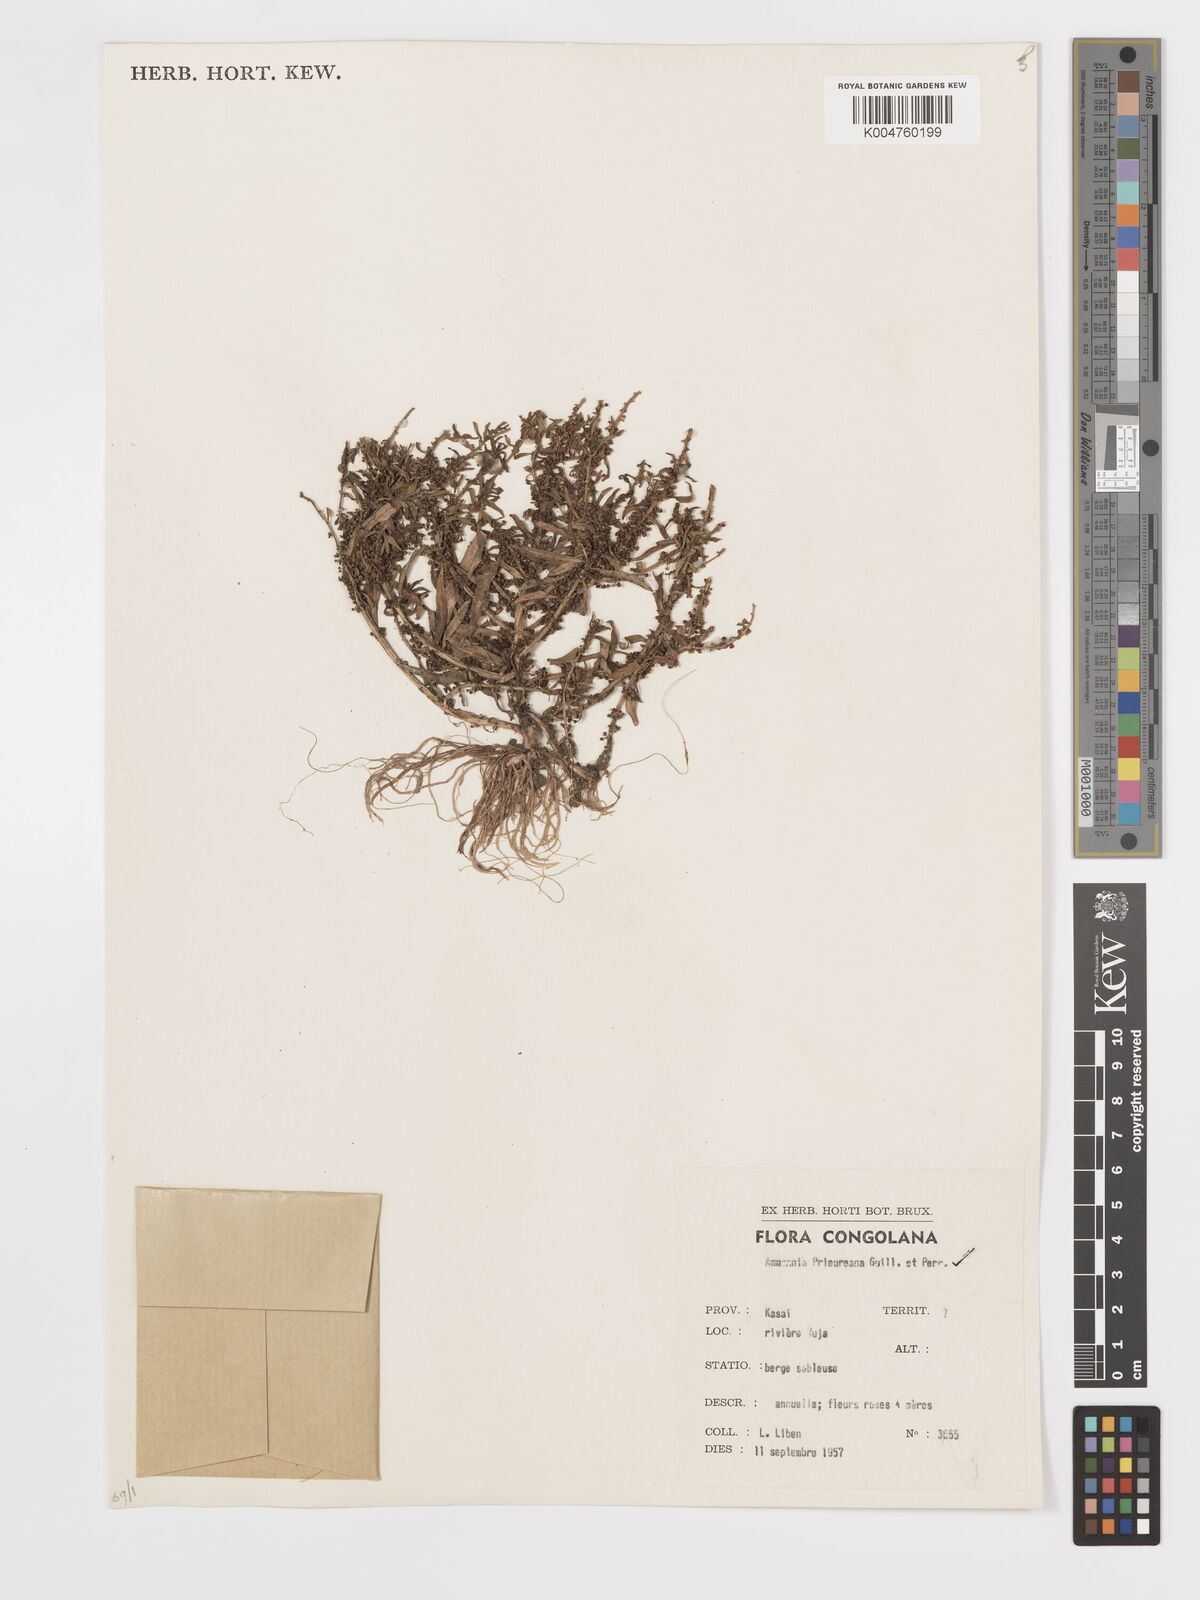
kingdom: Plantae
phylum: Tracheophyta
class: Magnoliopsida
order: Myrtales
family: Lythraceae
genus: Ammannia
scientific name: Ammannia prieuriana
